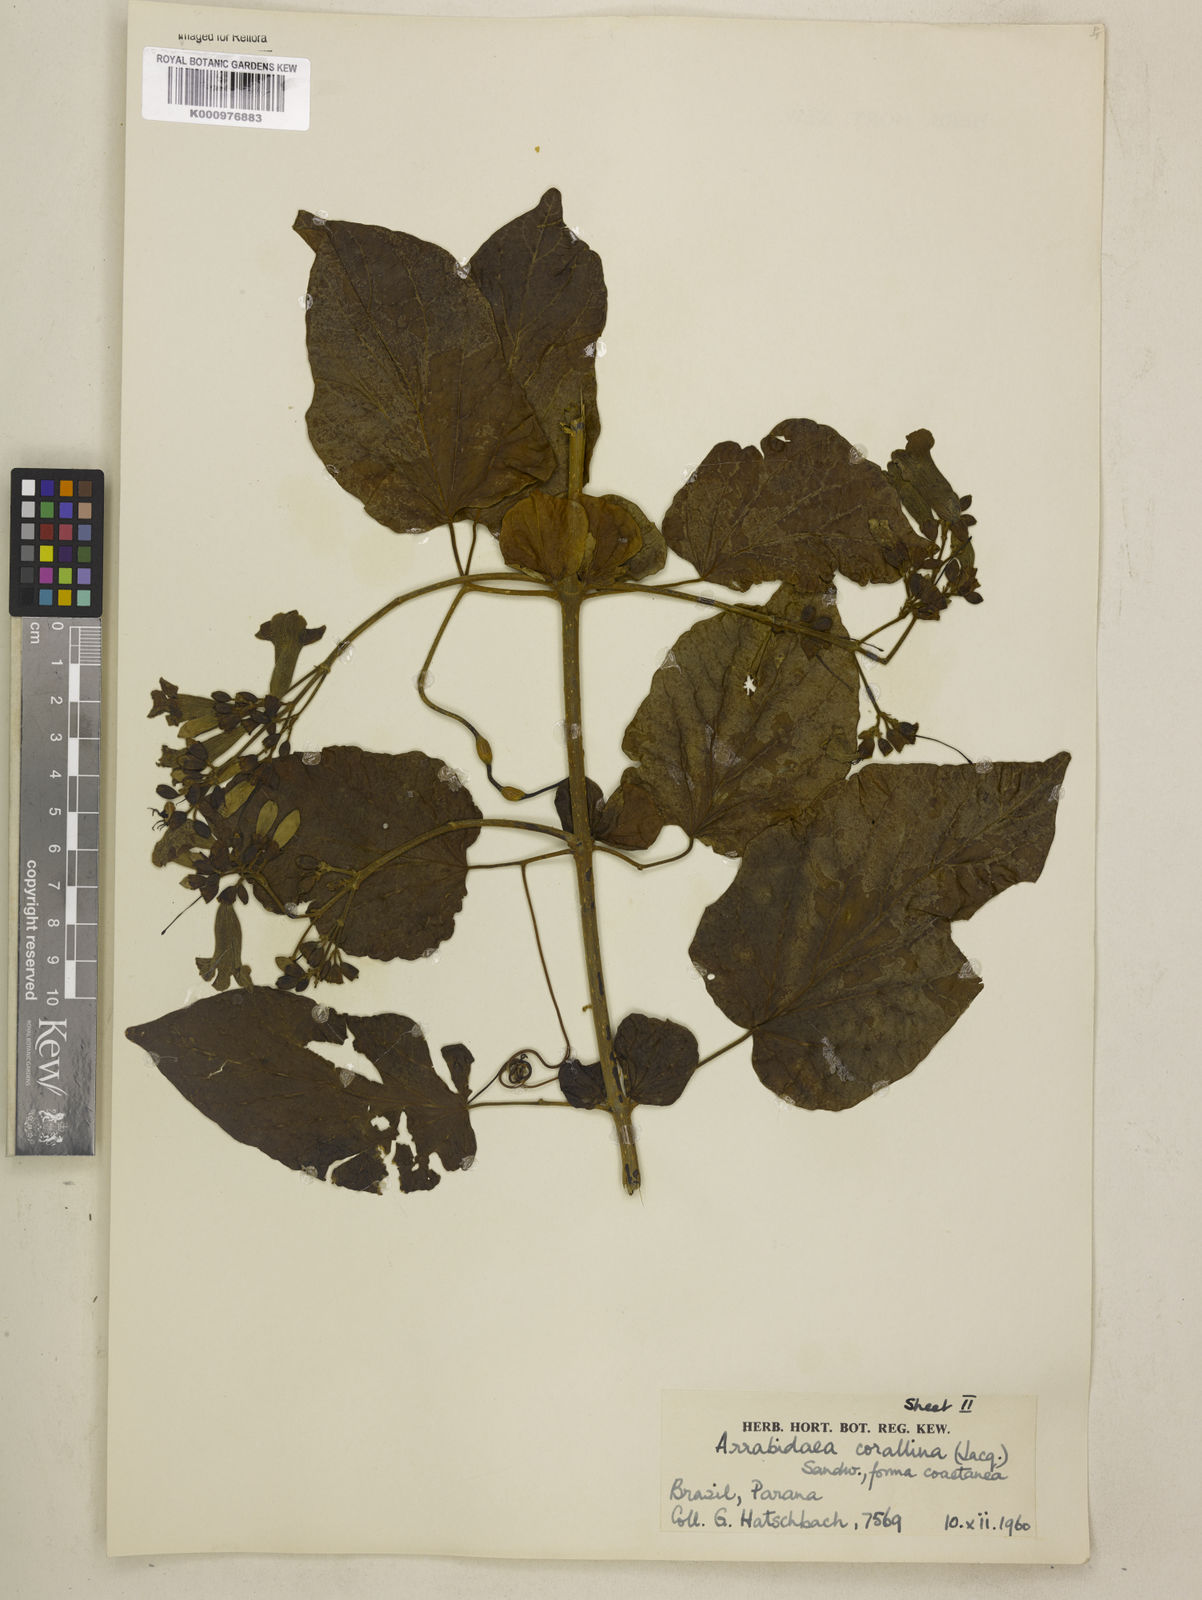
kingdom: Plantae
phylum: Tracheophyta
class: Magnoliopsida
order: Lamiales
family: Bignoniaceae
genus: Tanaecium
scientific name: Tanaecium dichotomum
